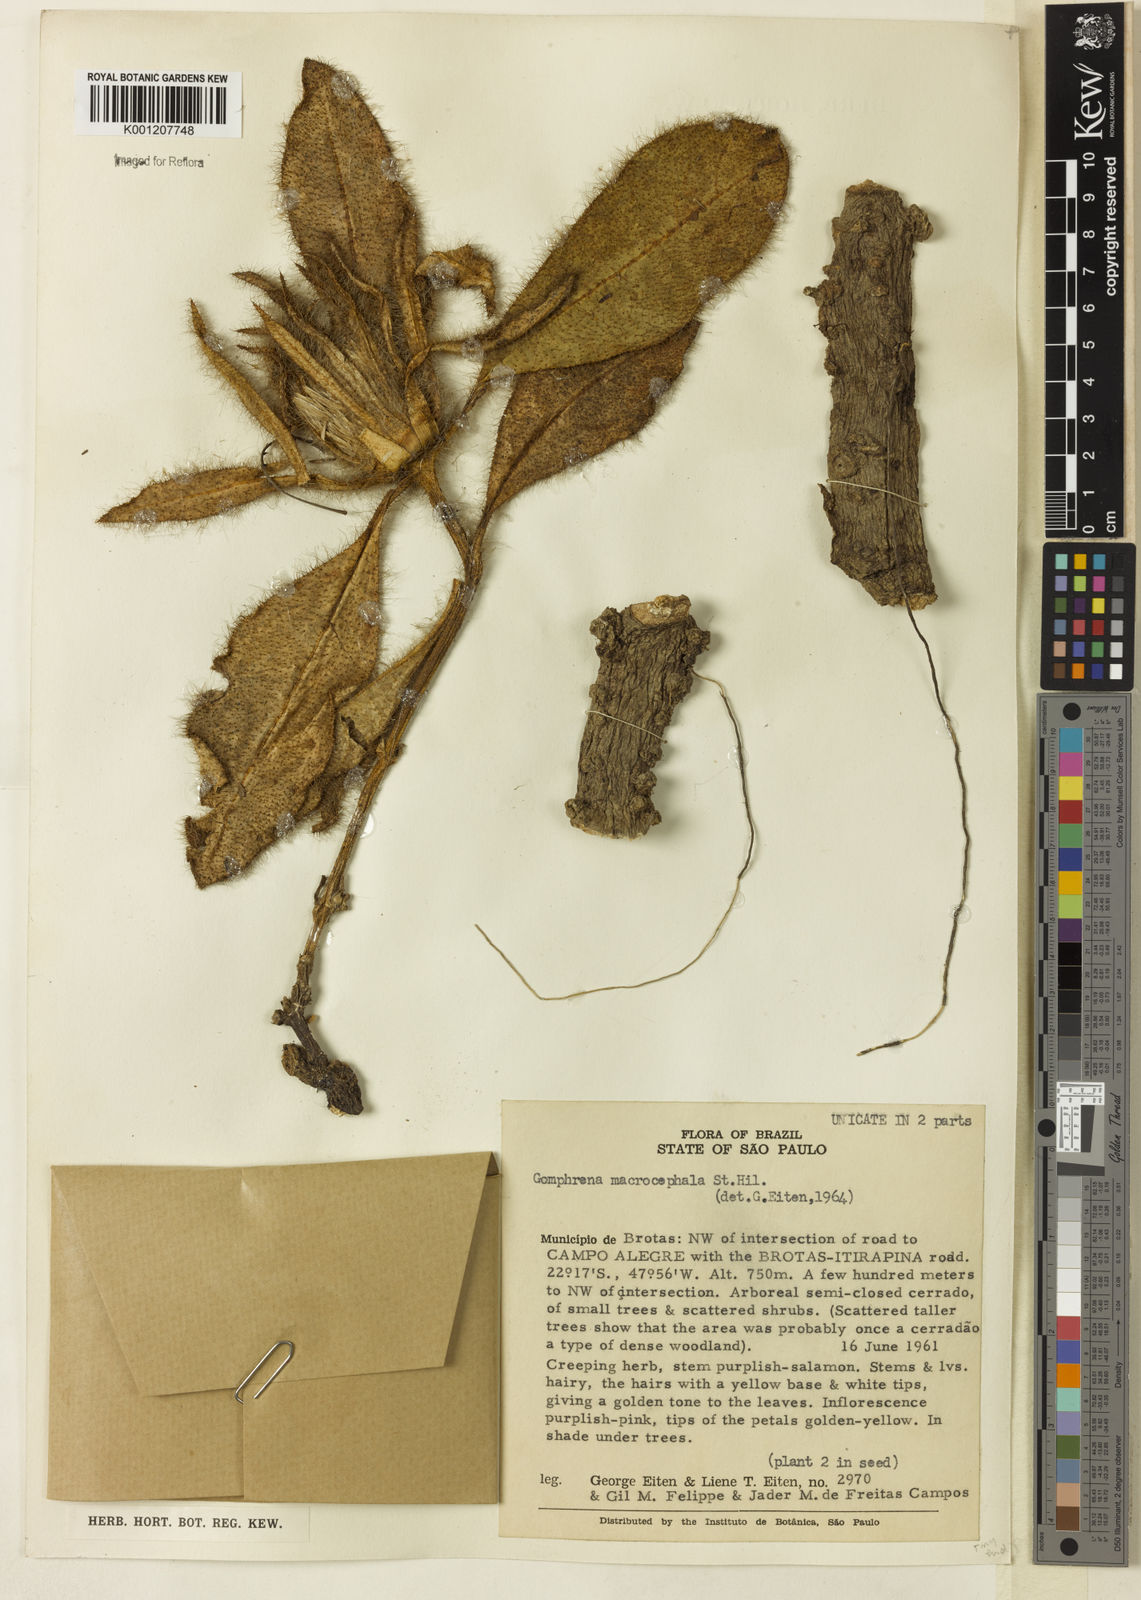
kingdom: Plantae
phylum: Tracheophyta
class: Magnoliopsida
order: Caryophyllales
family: Amaranthaceae
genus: Gomphrena
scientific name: Gomphrena macrocephala
